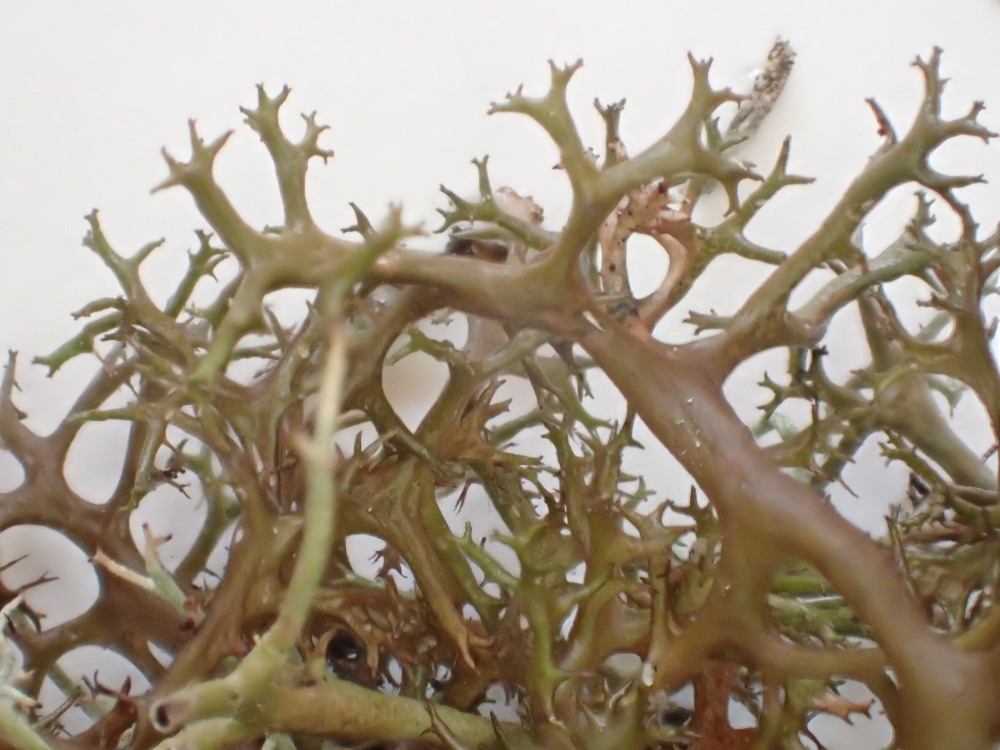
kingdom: Fungi
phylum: Ascomycota
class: Lecanoromycetes
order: Lecanorales
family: Parmeliaceae
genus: Cetraria
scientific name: Cetraria muricata
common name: tue-tjørnelav
